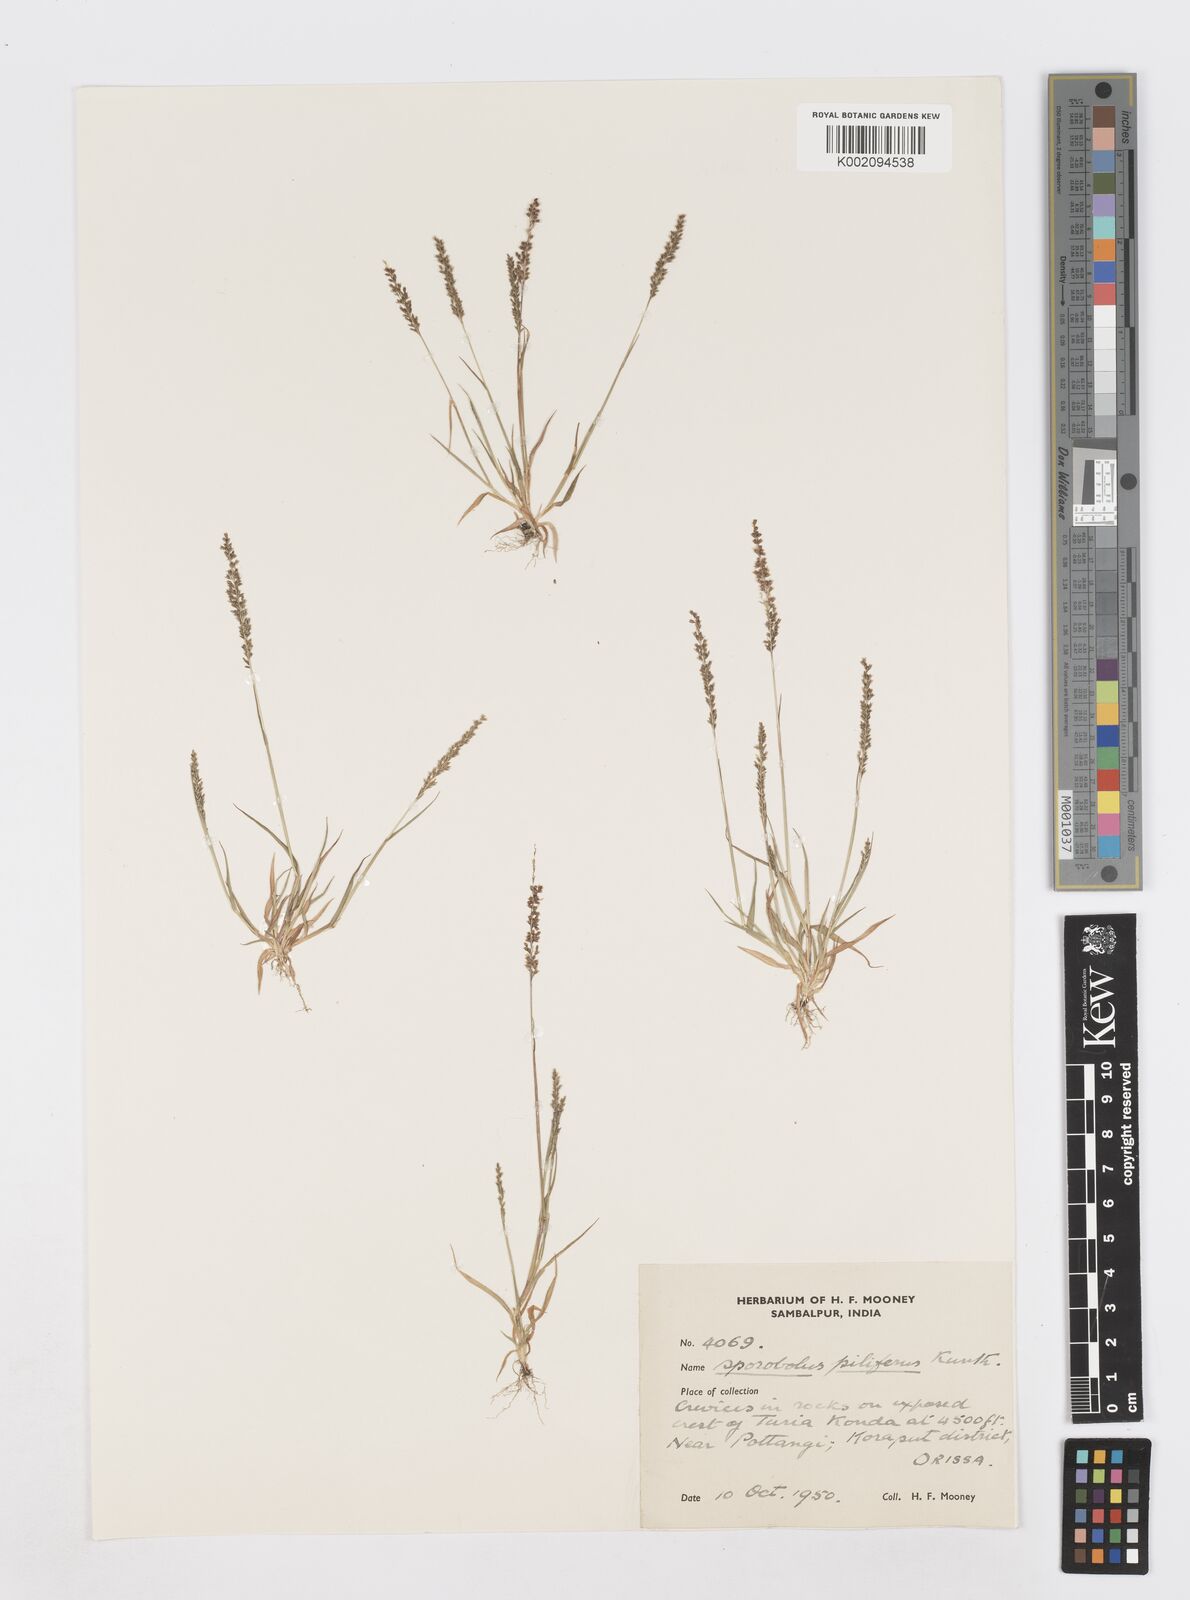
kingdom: Plantae
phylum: Tracheophyta
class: Liliopsida
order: Poales
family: Poaceae
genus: Sporobolus
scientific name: Sporobolus pilifer
